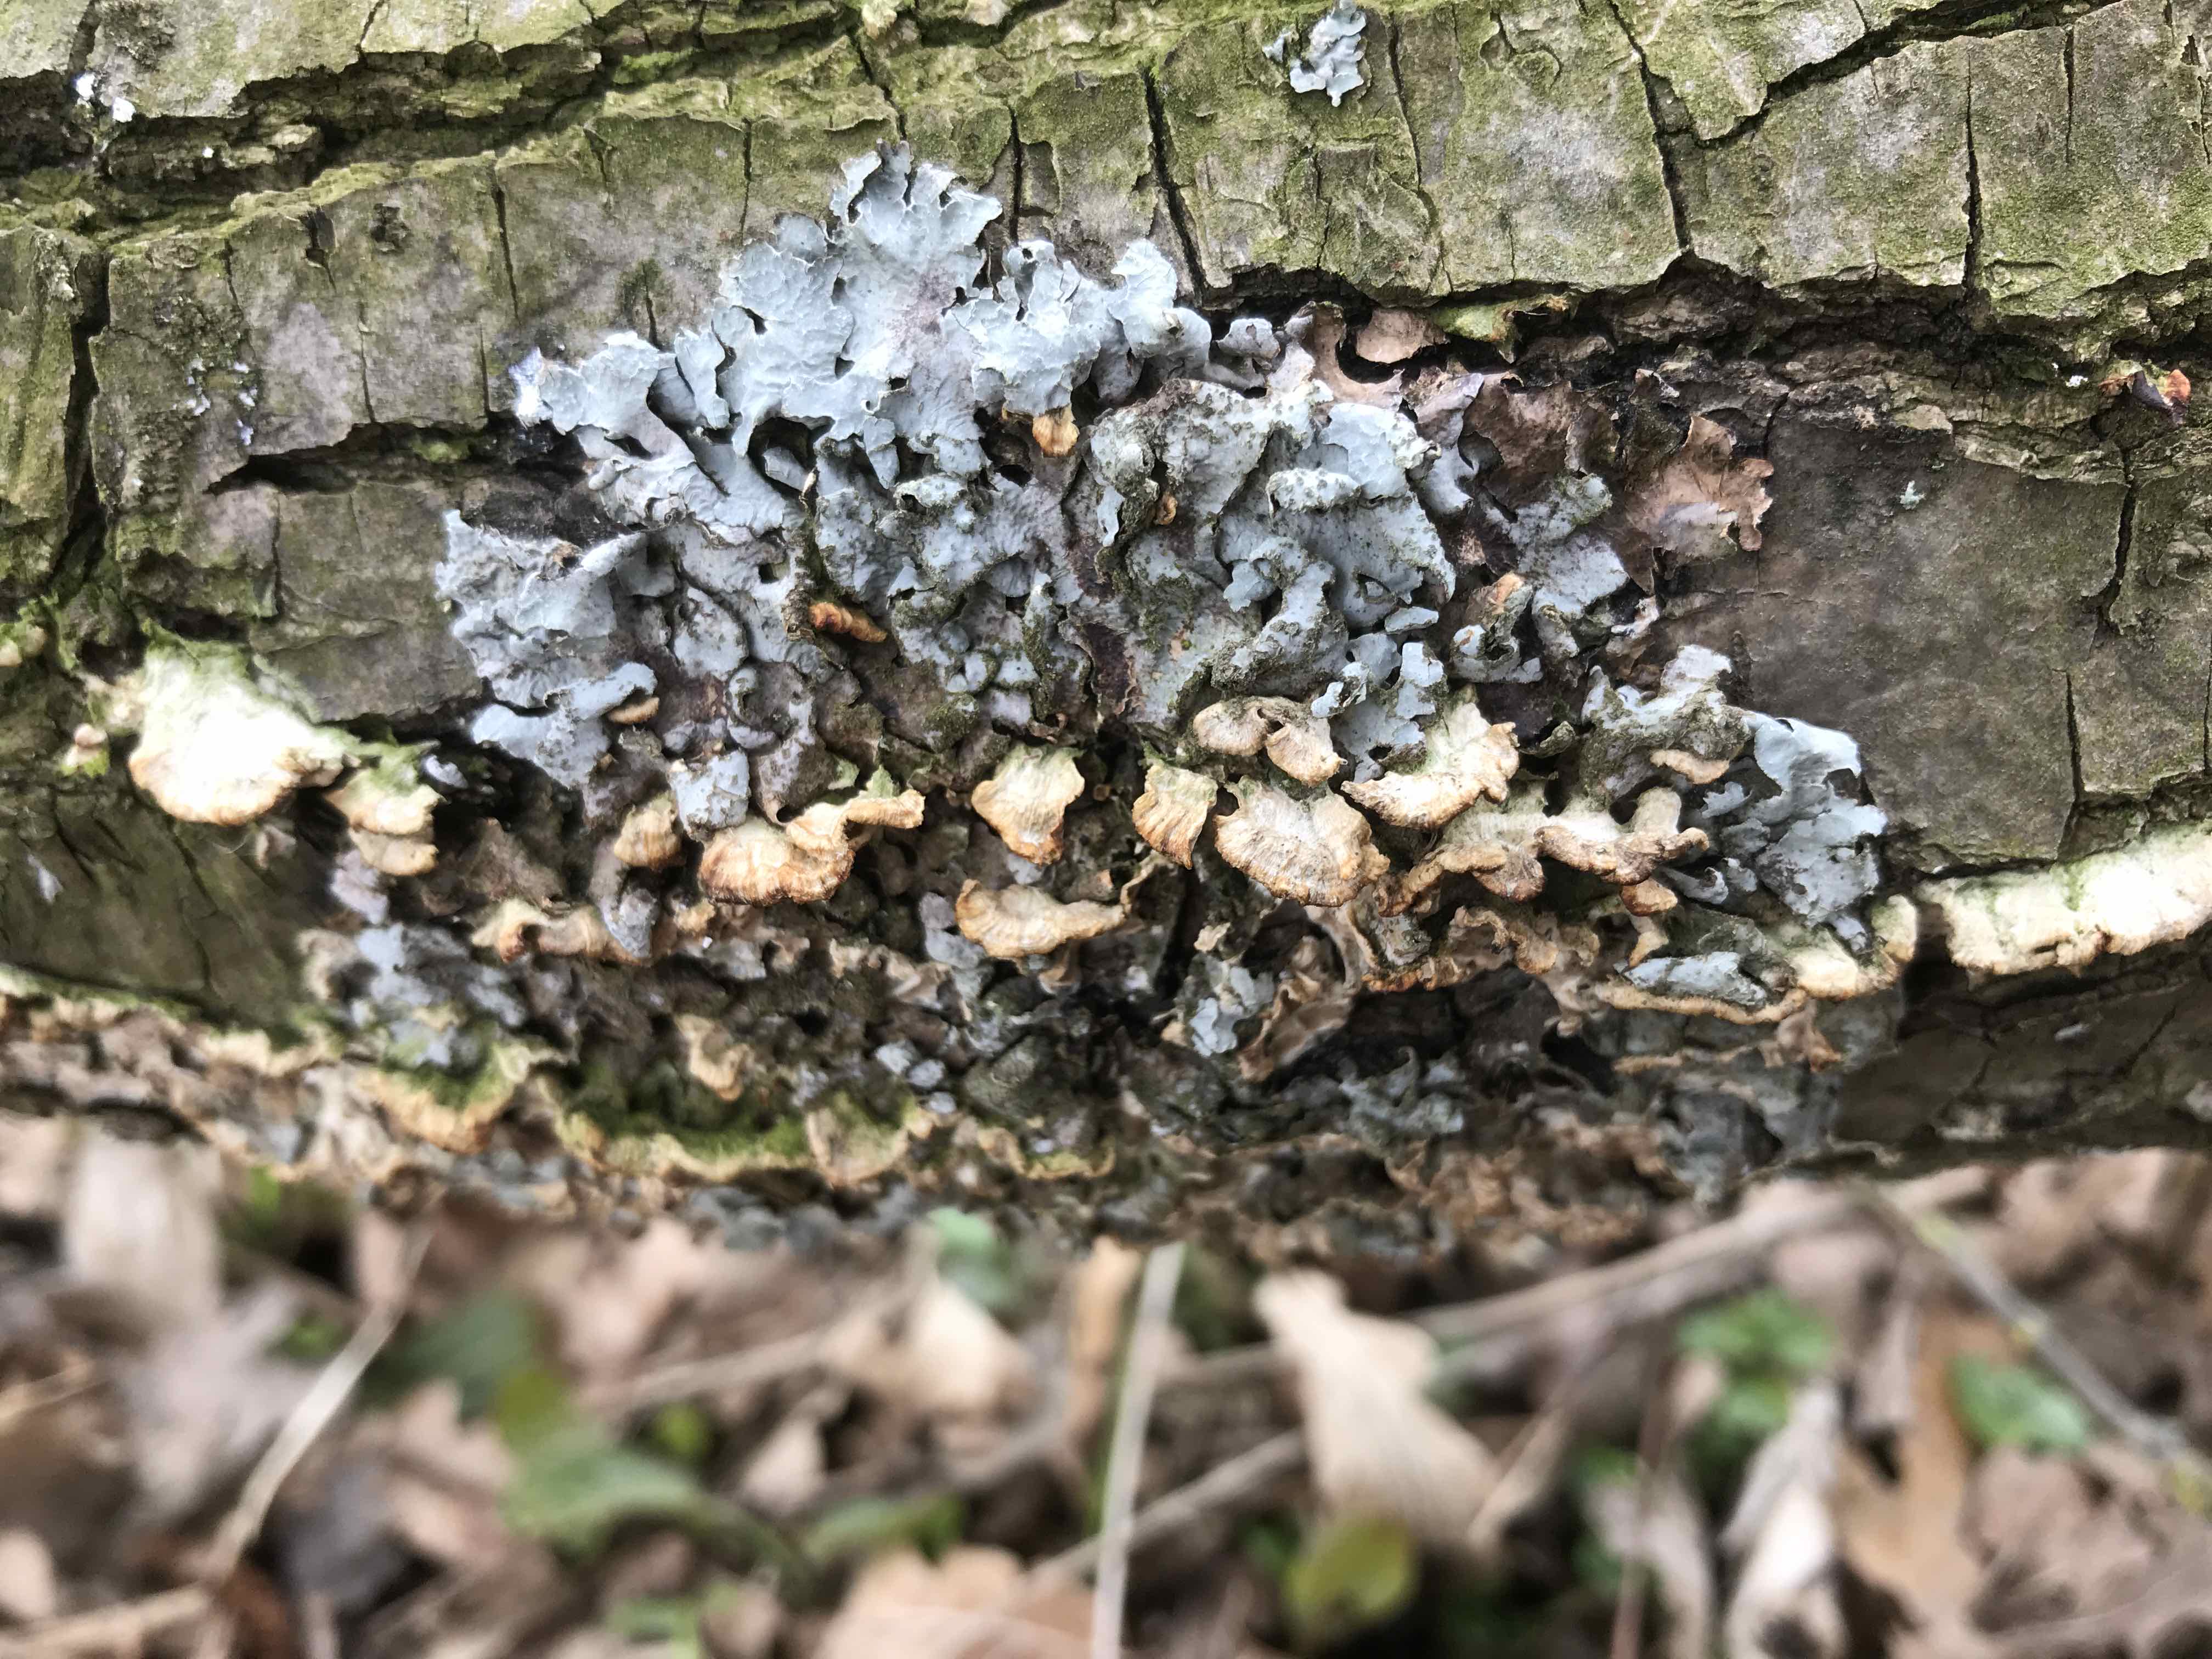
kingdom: Fungi
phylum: Ascomycota
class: Lecanoromycetes
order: Lecanorales
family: Parmeliaceae
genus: Parmelia
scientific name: Parmelia sulcata
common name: rynket skållav
